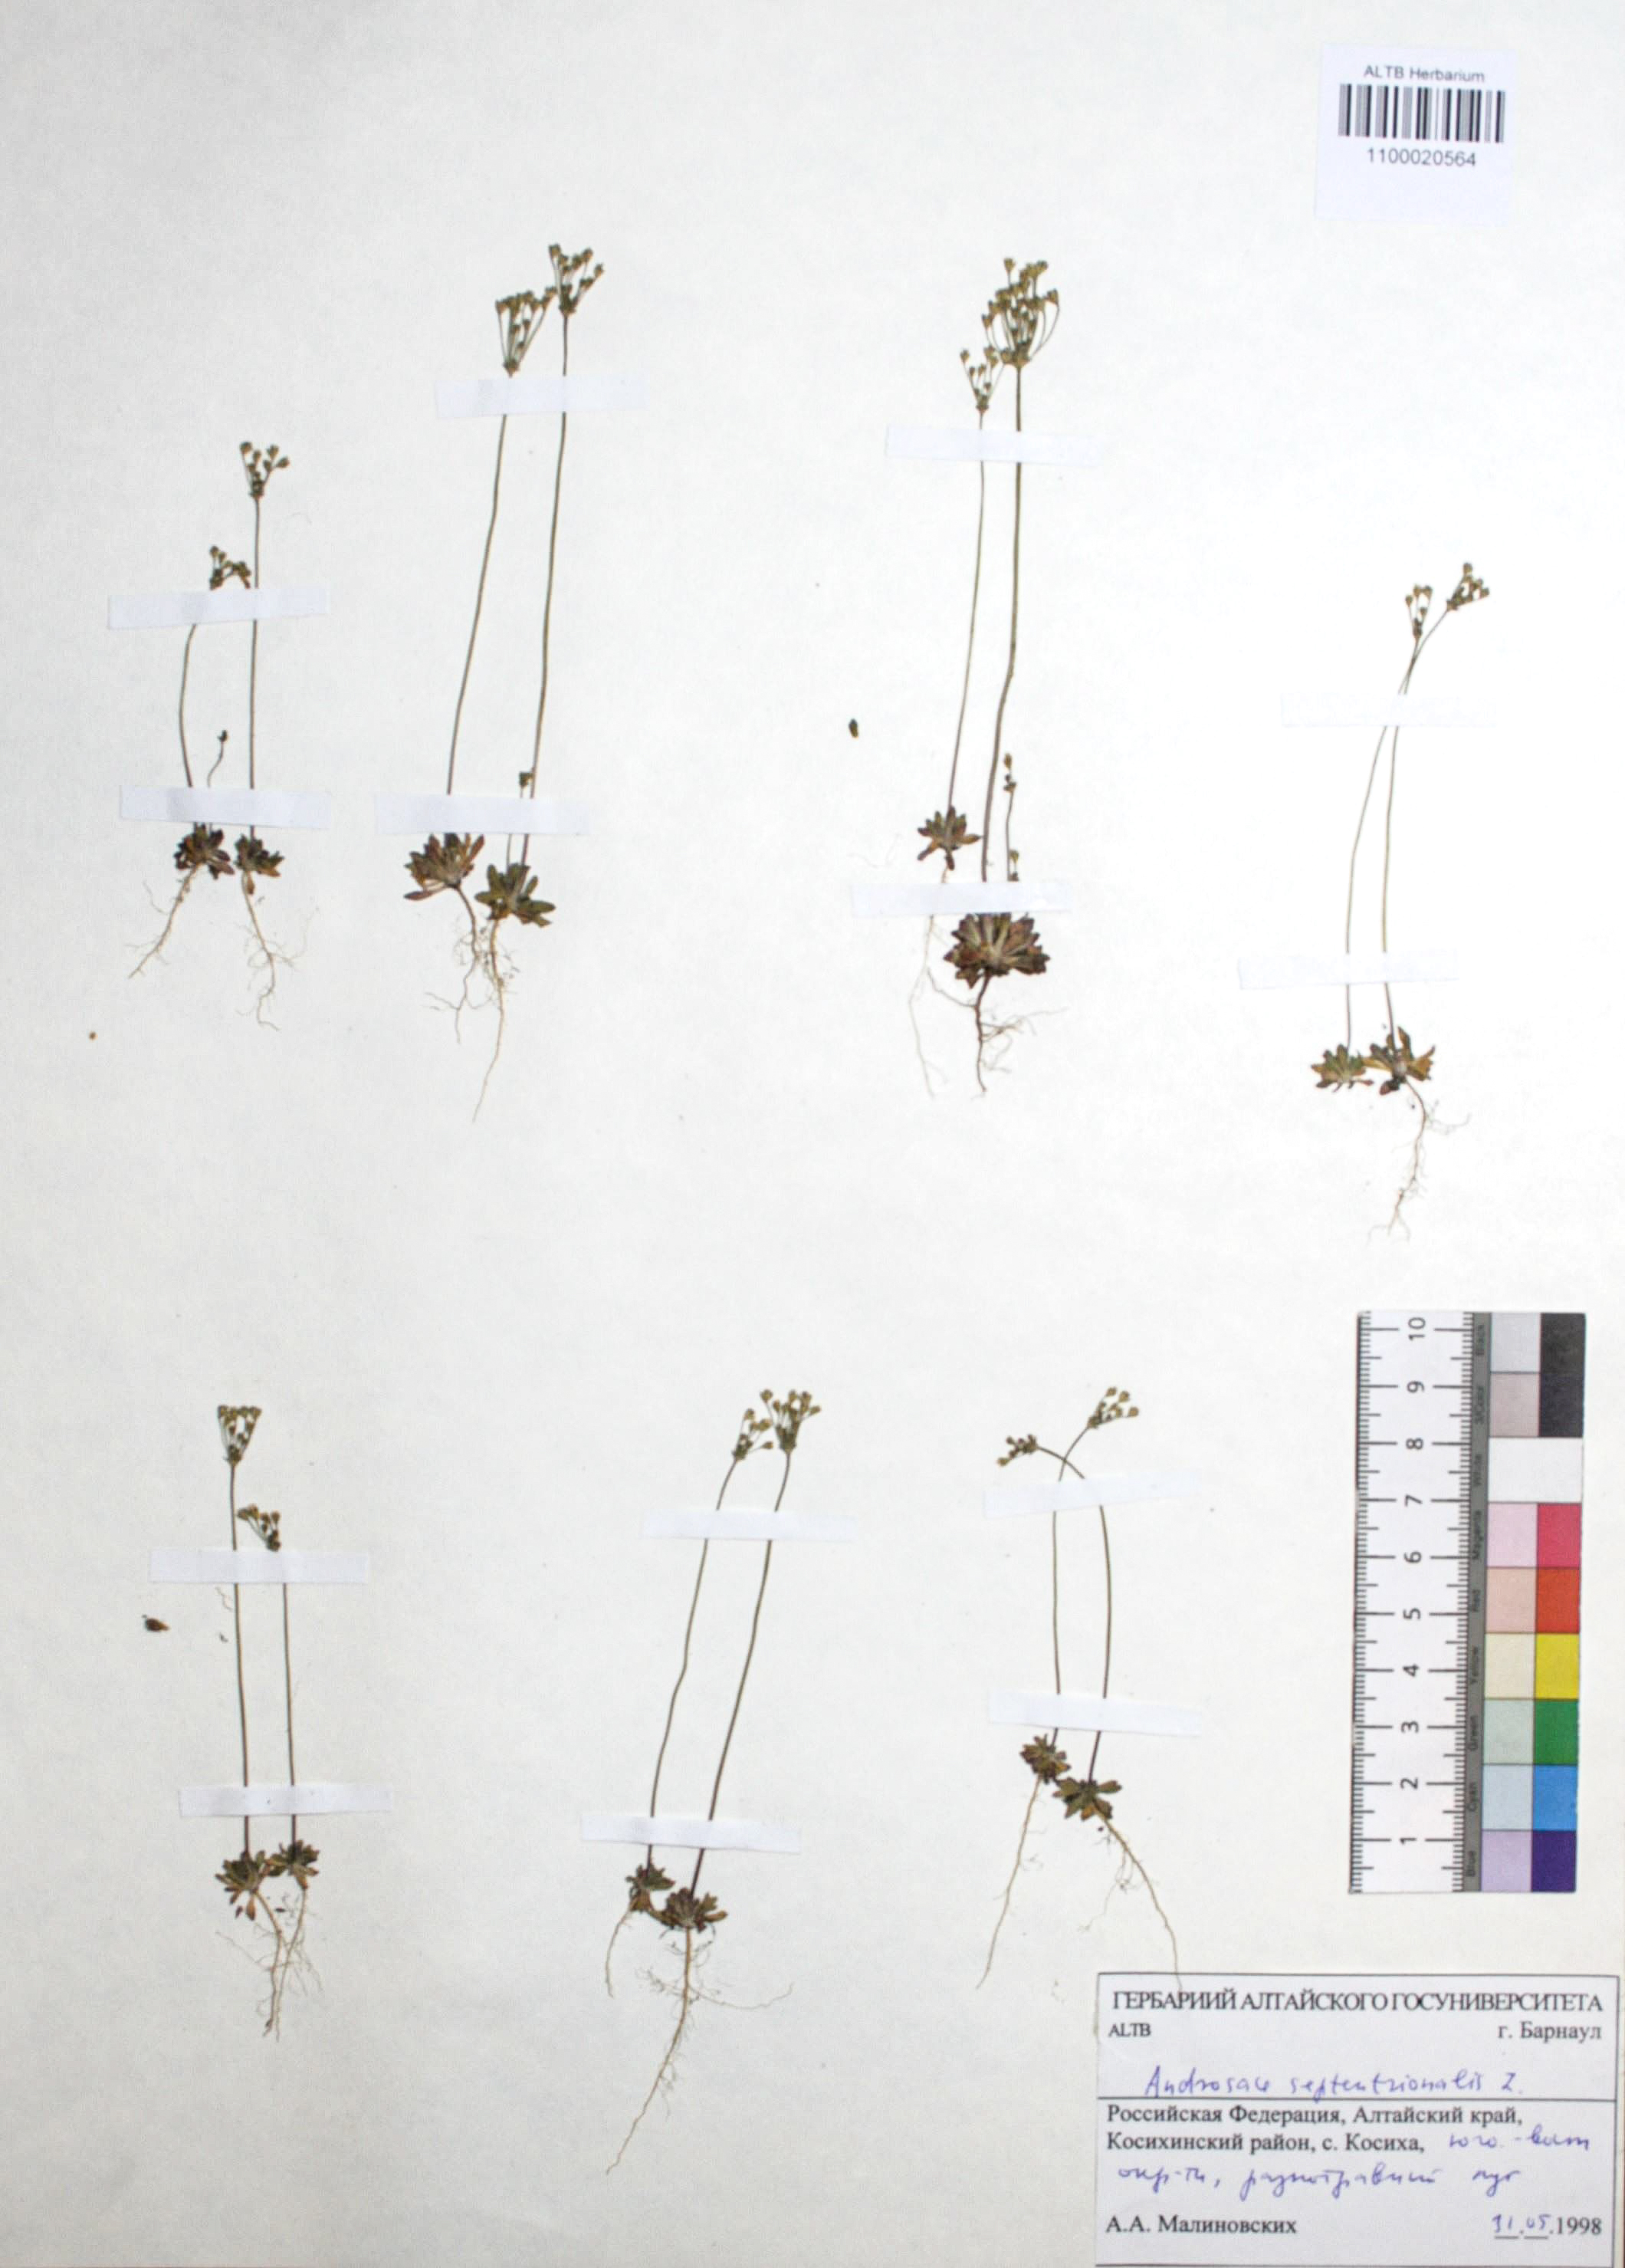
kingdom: Plantae
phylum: Tracheophyta
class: Magnoliopsida
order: Ericales
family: Primulaceae
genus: Androsace
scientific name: Androsace septentrionalis
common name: Hairy northern fairy-candelabra
